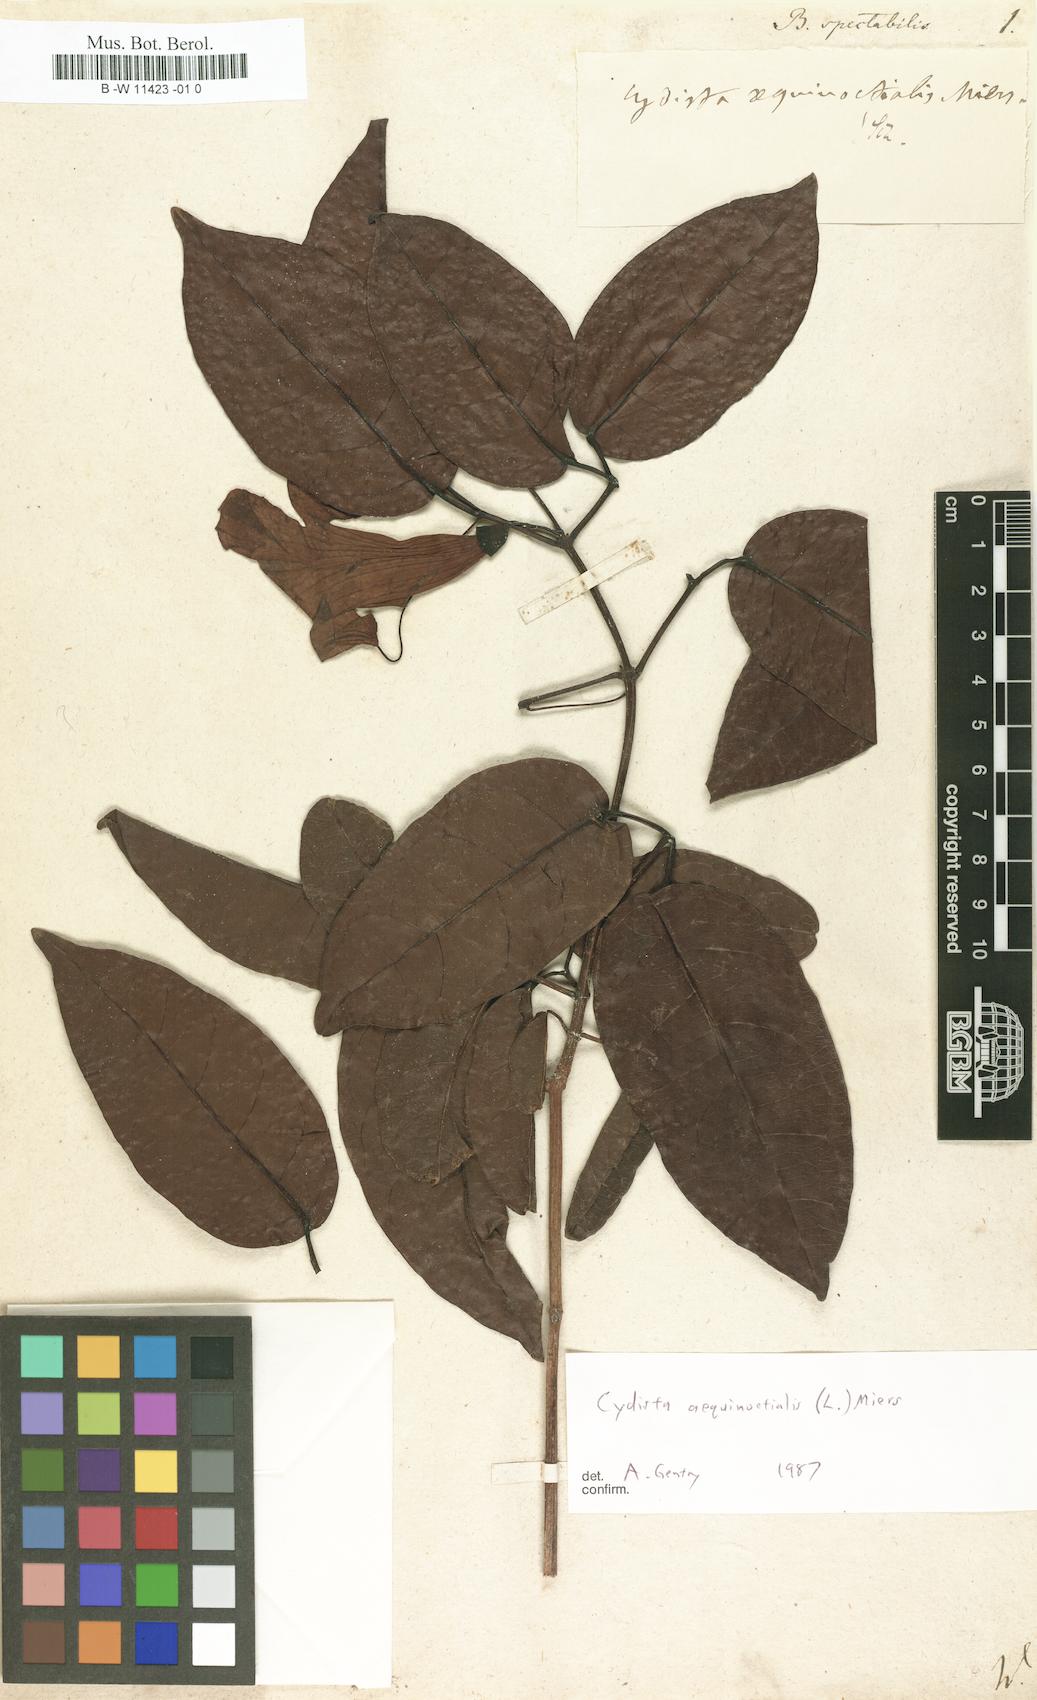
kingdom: Plantae
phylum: Tracheophyta
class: Magnoliopsida
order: Lamiales
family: Bignoniaceae
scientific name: Bignoniaceae
